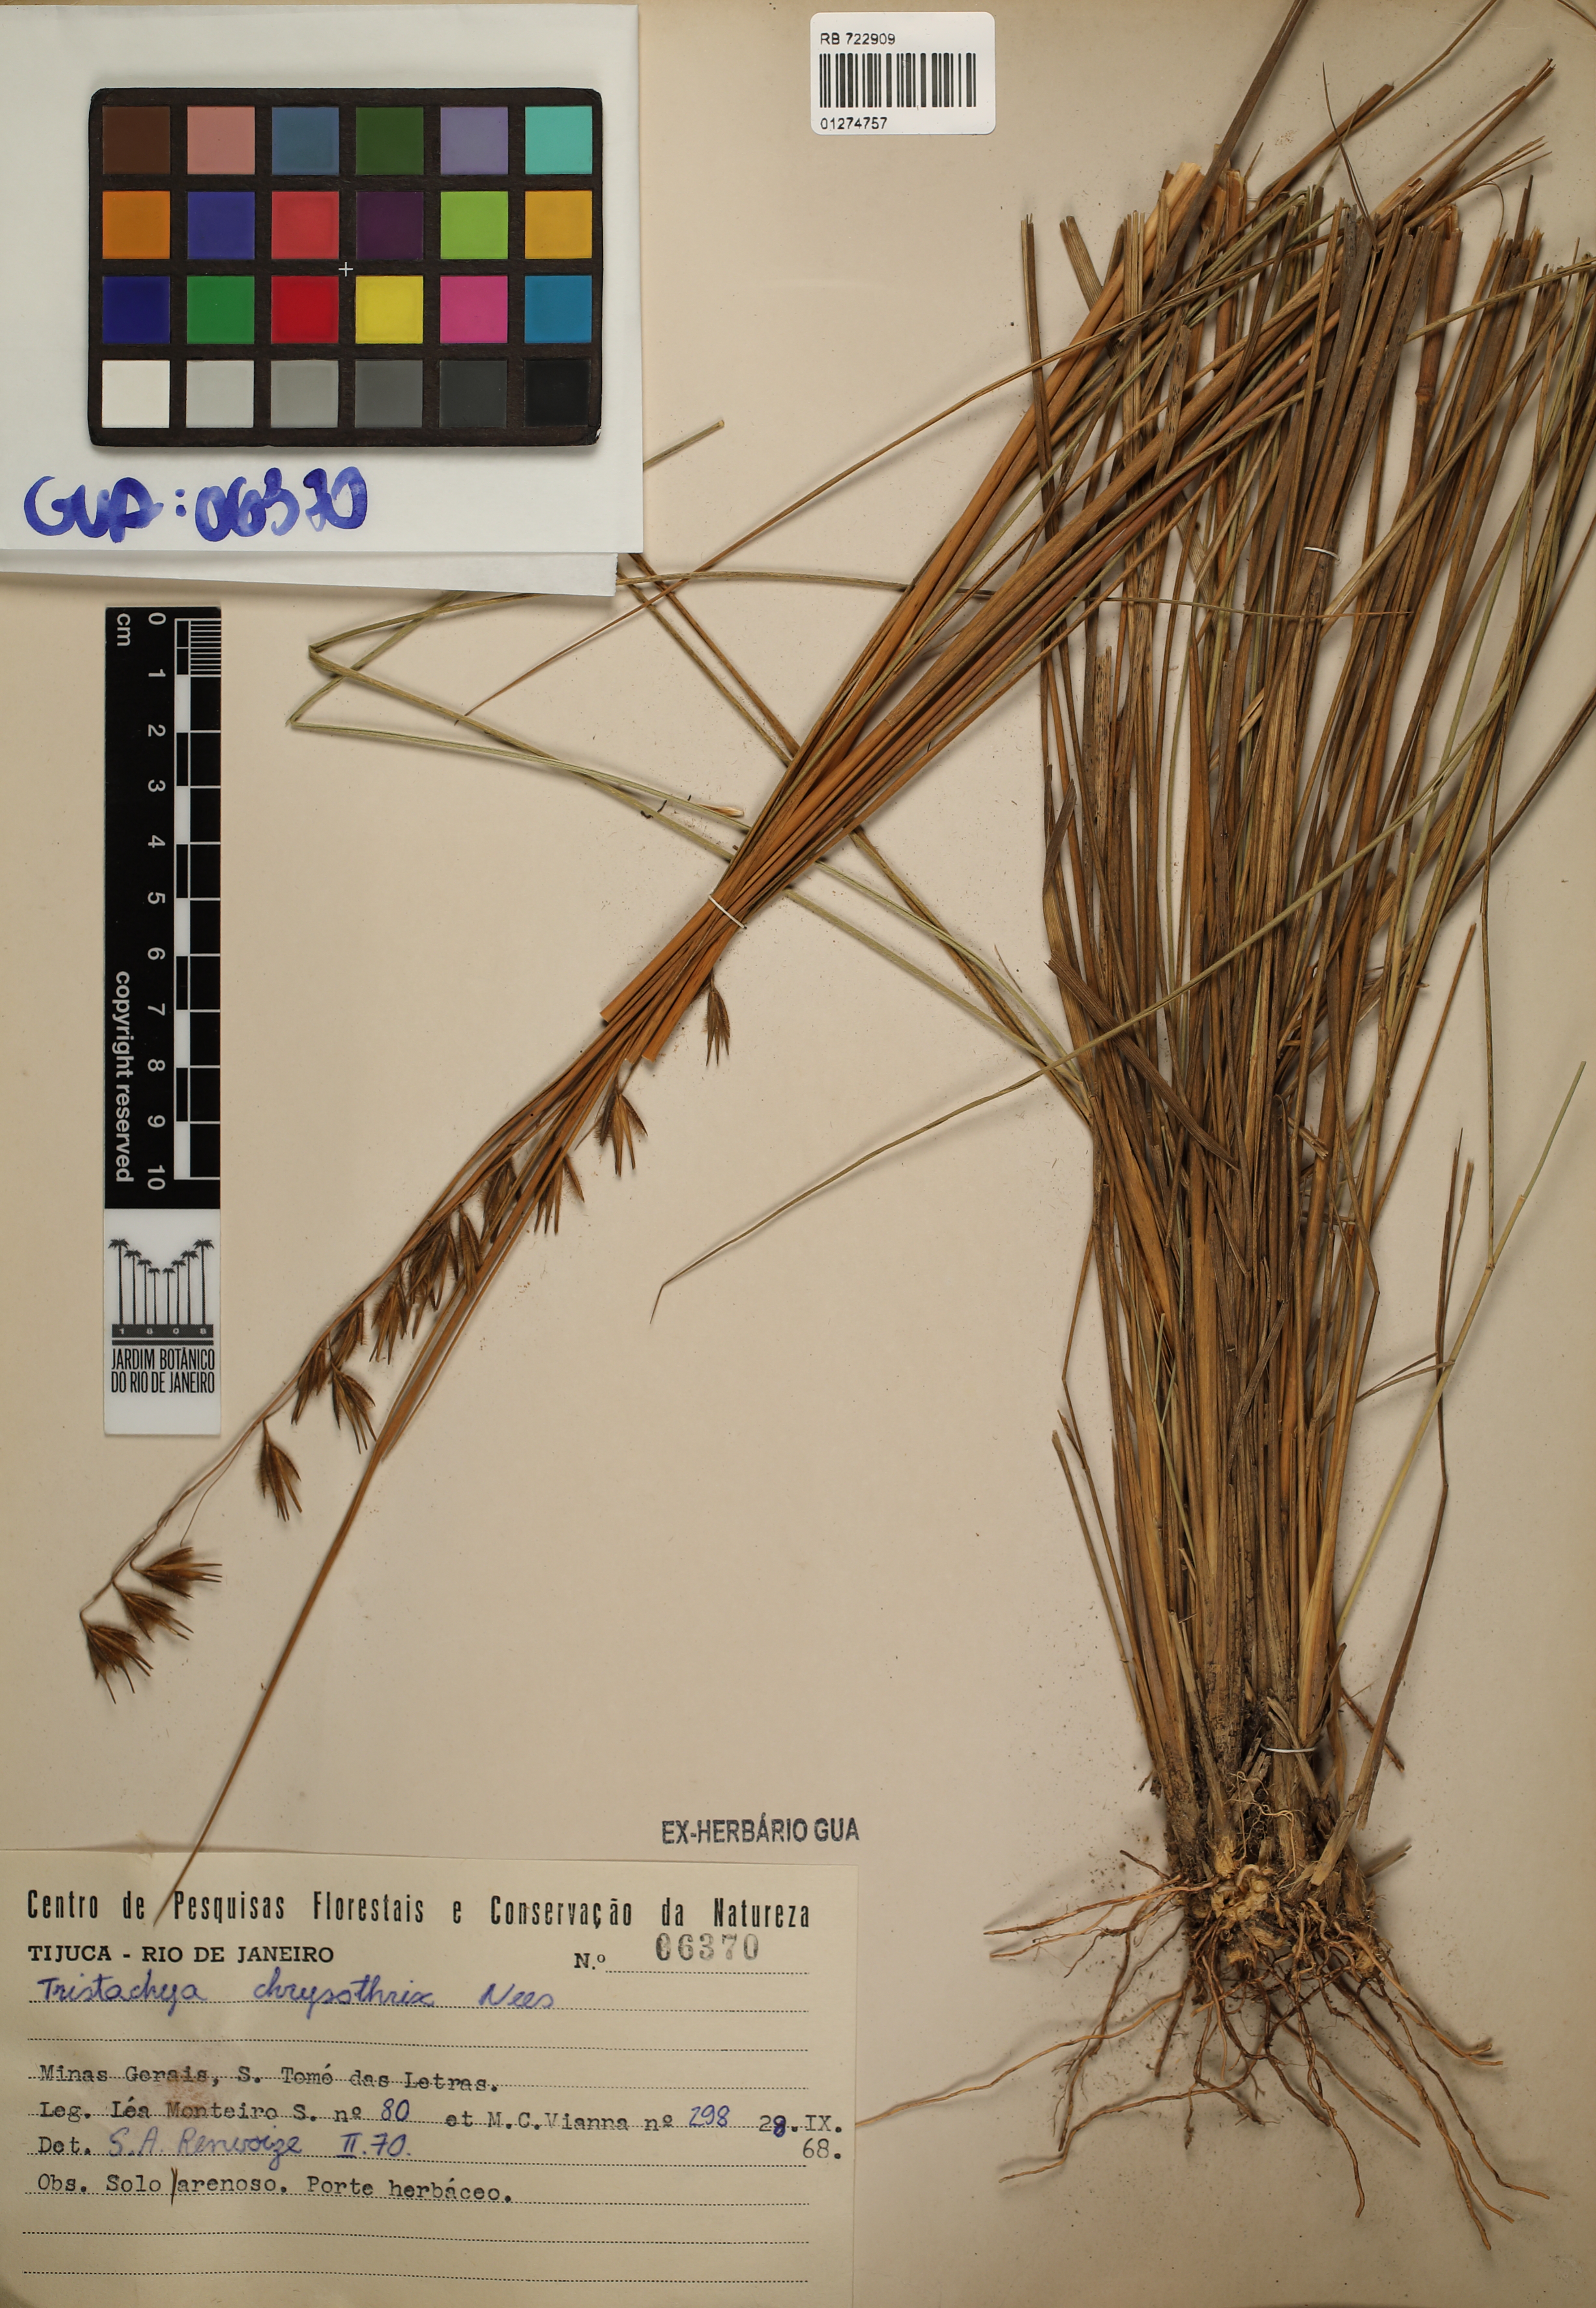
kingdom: Plantae
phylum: Tracheophyta
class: Liliopsida
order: Poales
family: Poaceae
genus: Loudetiopsis
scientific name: Loudetiopsis chrysothrix
